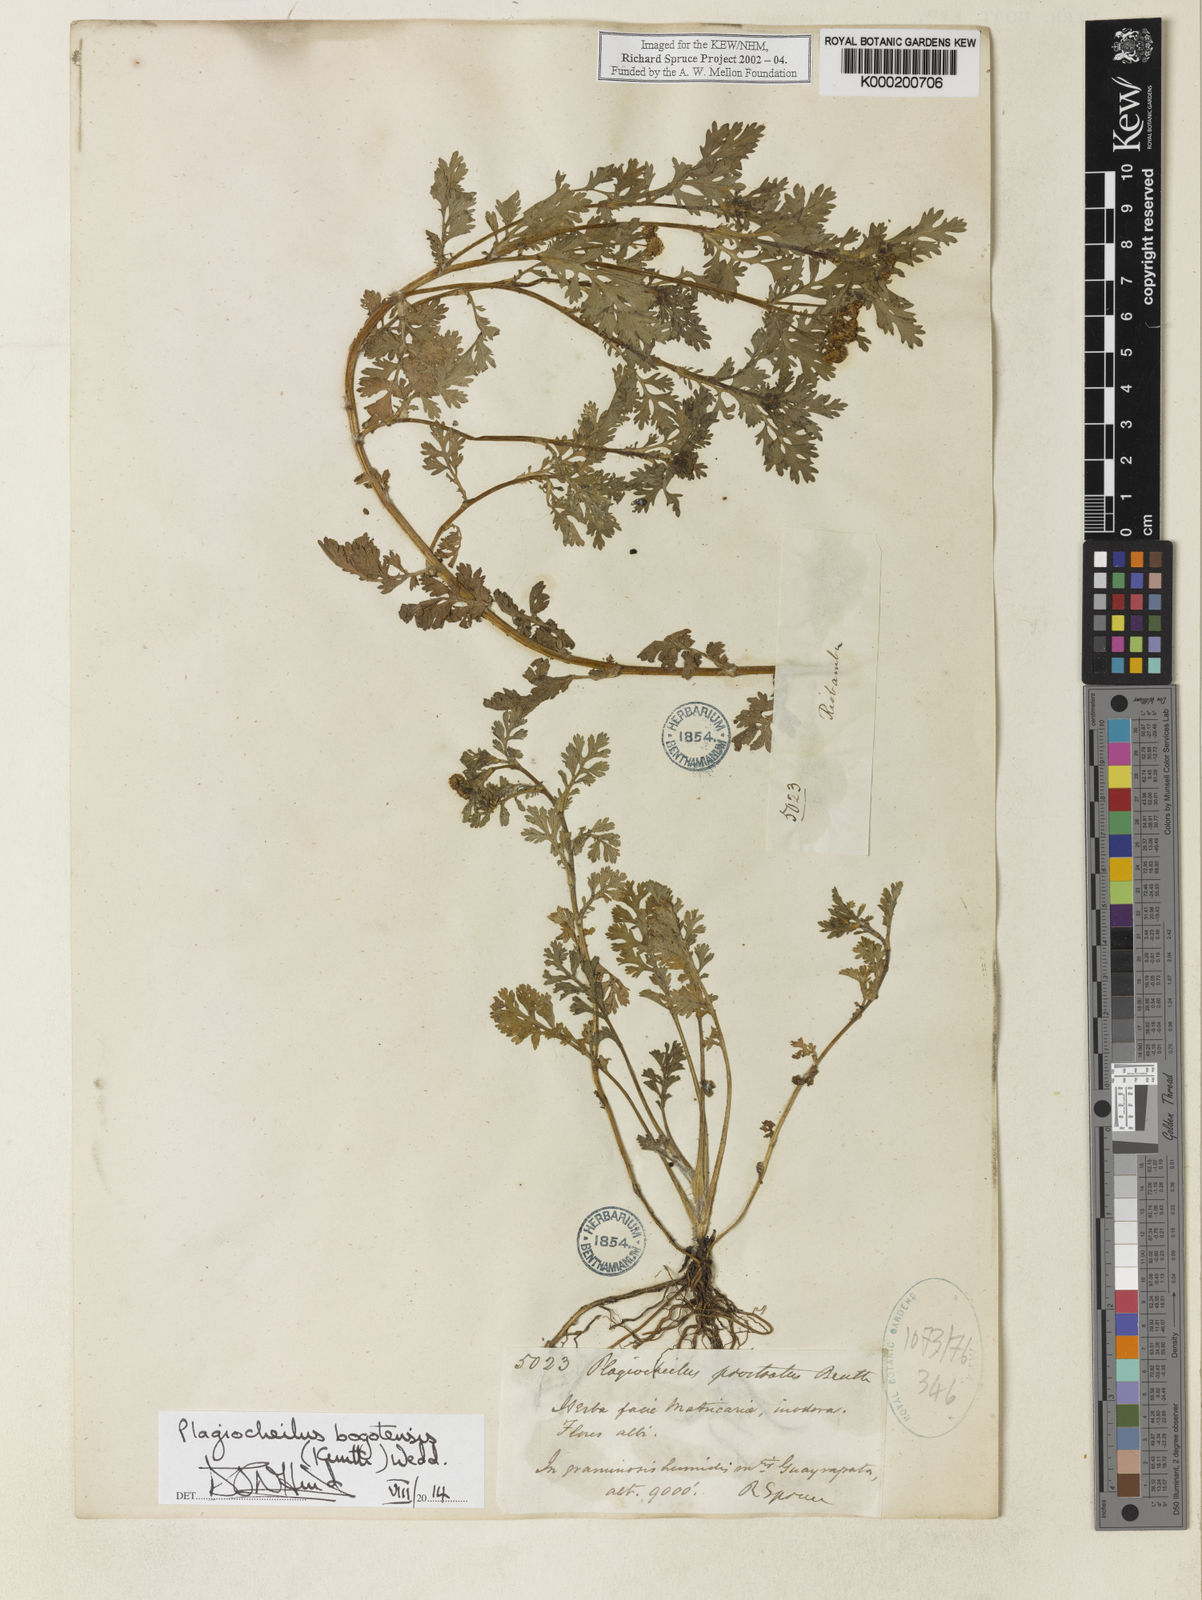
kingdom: Plantae
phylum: Tracheophyta
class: Magnoliopsida
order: Asterales
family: Asteraceae
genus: Plagiocheilus
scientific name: Plagiocheilus bogotensis
